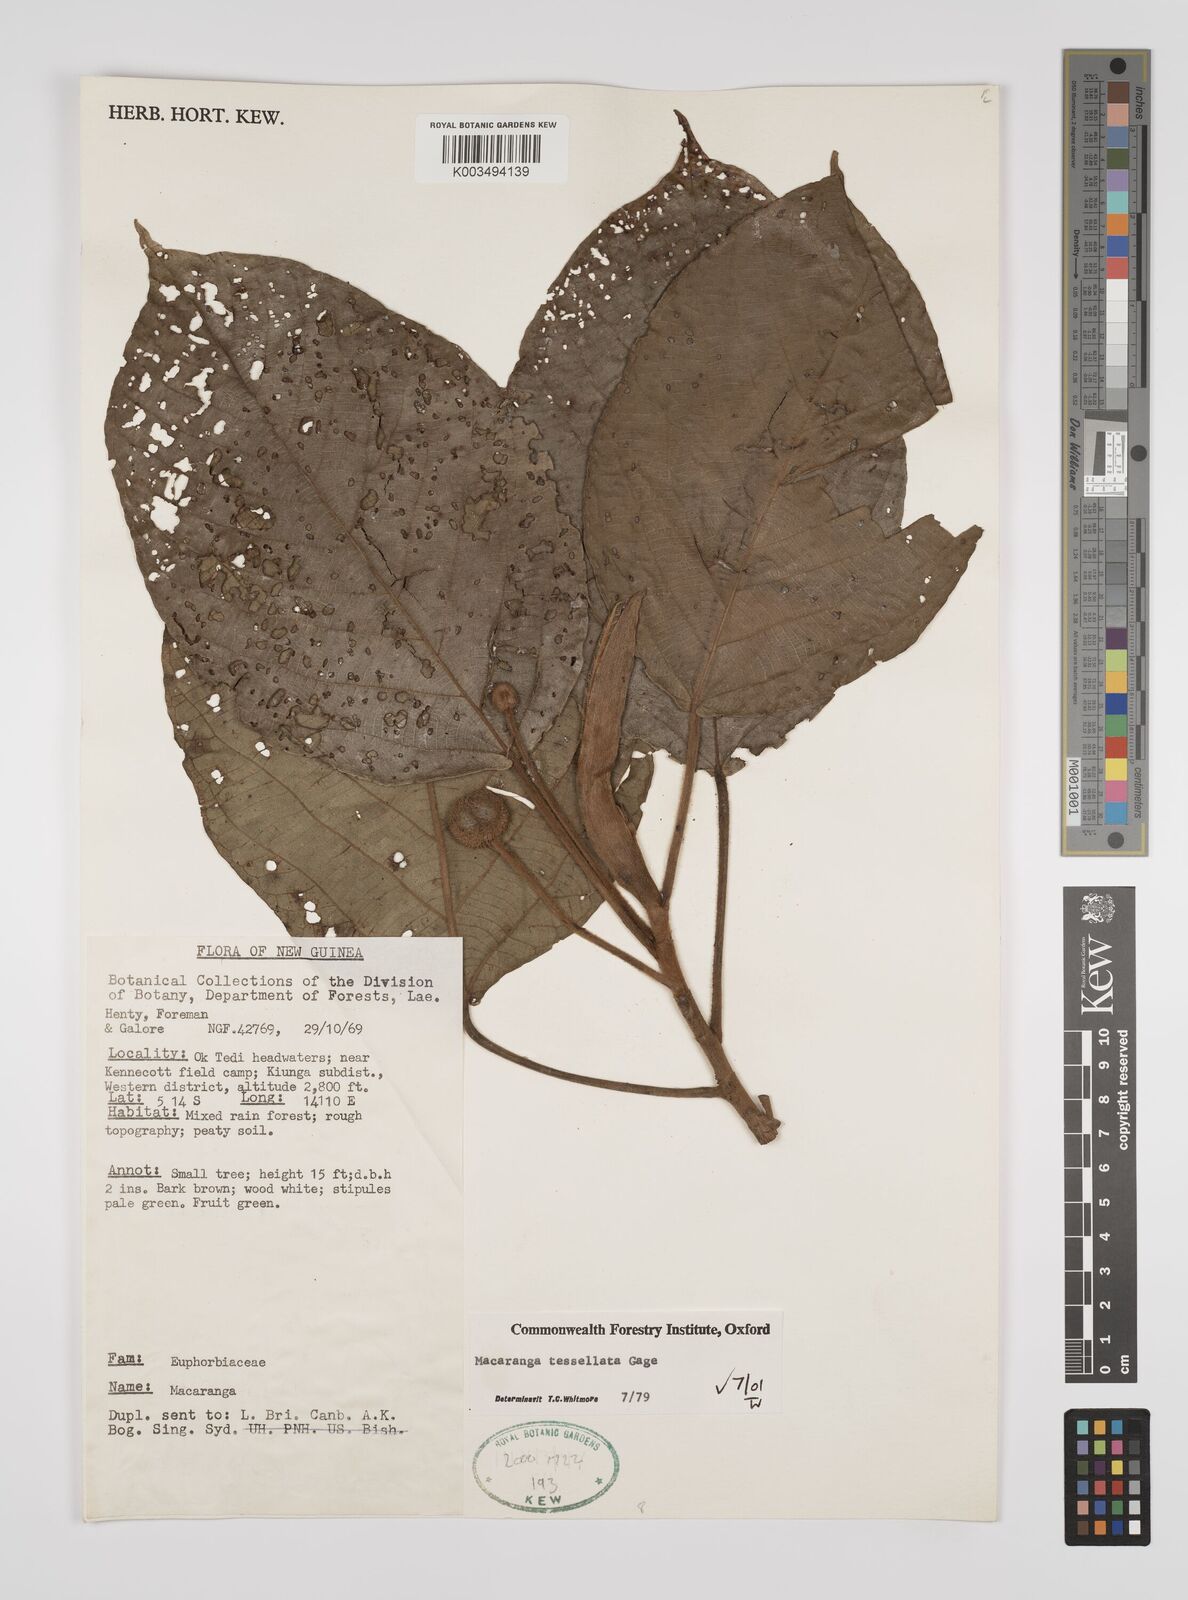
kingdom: Plantae
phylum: Tracheophyta
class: Magnoliopsida
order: Malpighiales
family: Euphorbiaceae
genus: Macaranga
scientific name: Macaranga aleuritoides
